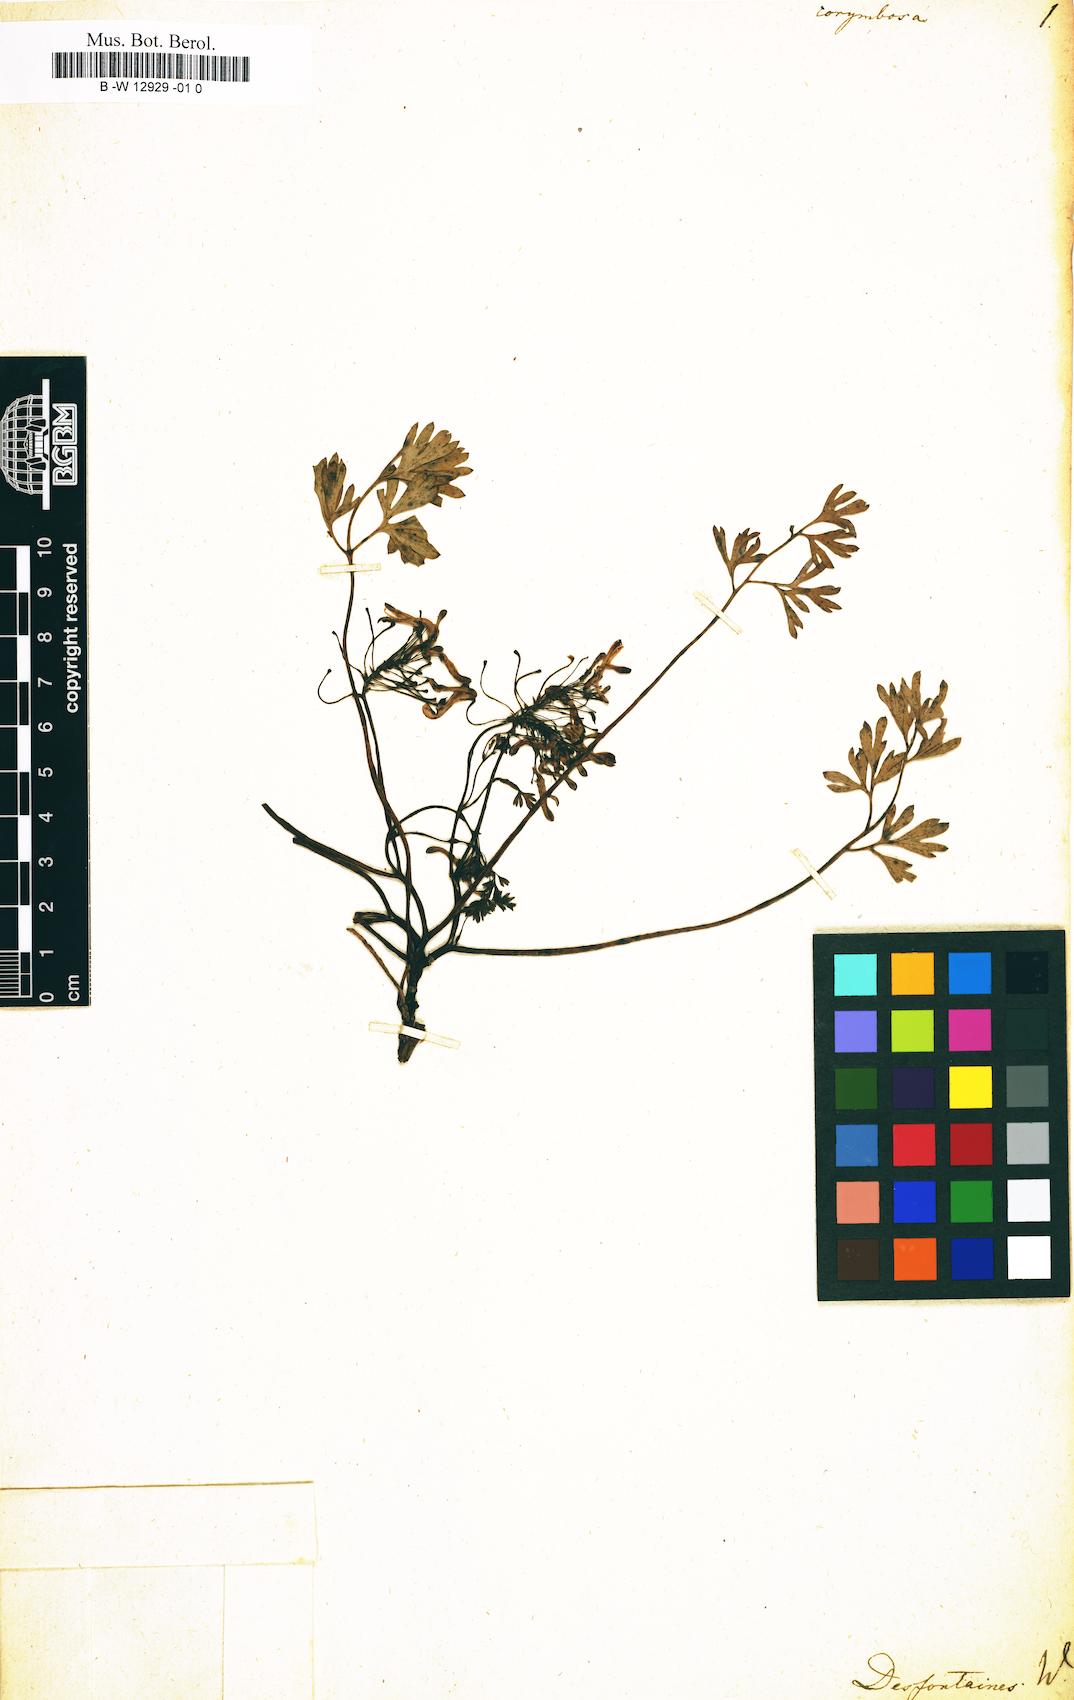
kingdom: Plantae
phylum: Tracheophyta
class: Magnoliopsida
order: Ranunculales
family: Papaveraceae
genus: Rupicapnos
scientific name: Rupicapnos africana
